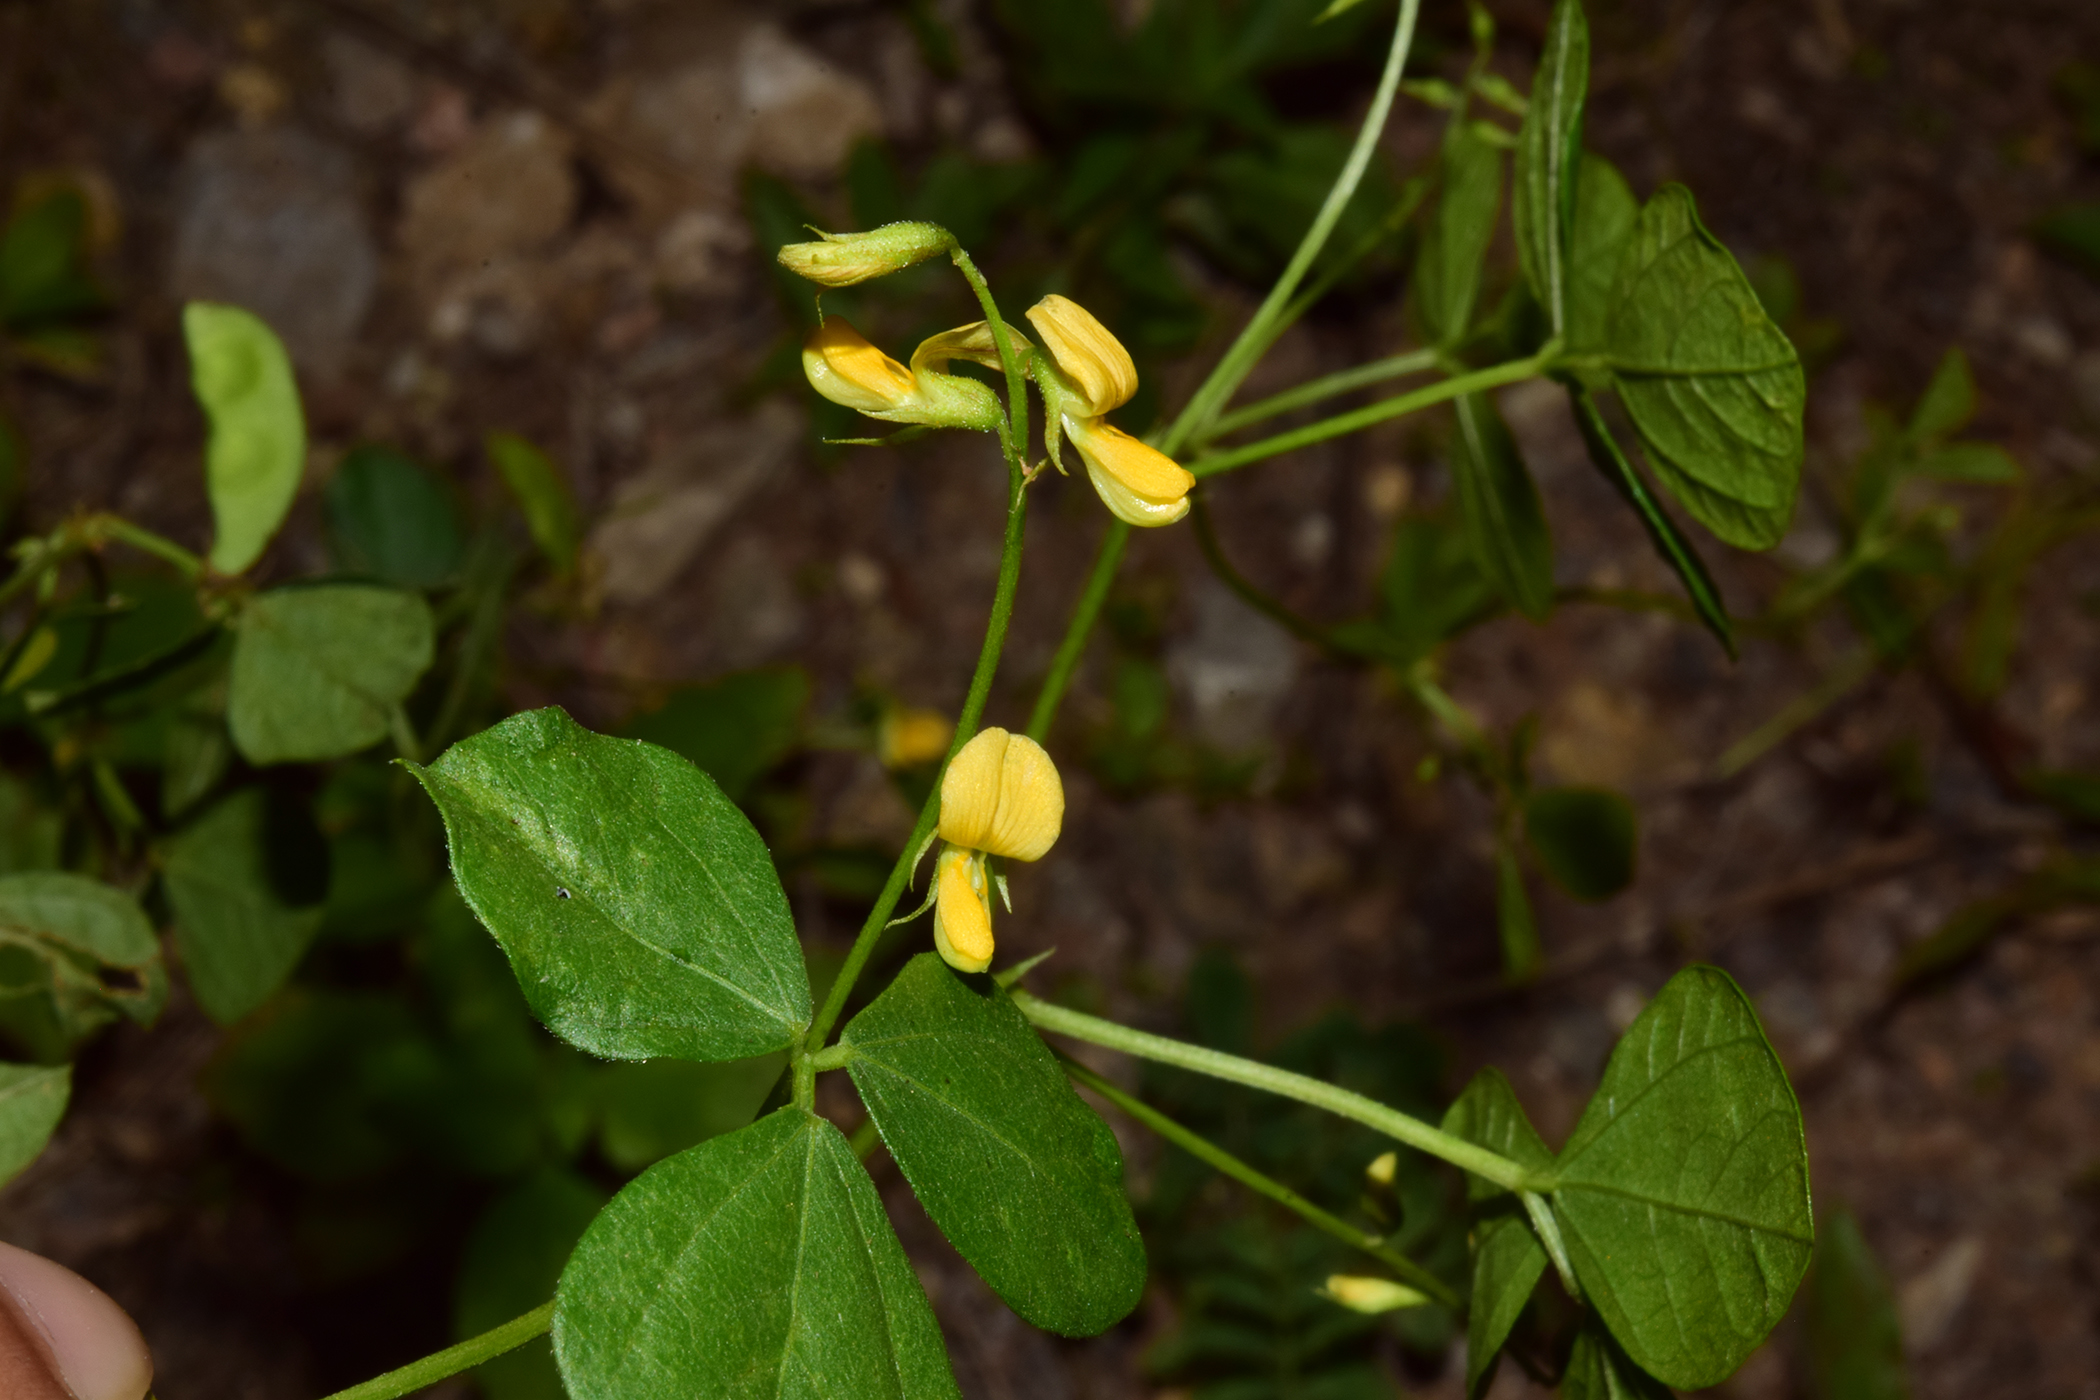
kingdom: Plantae
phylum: Tracheophyta
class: Magnoliopsida
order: Fabales
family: Fabaceae
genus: Rhynchosia
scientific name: Rhynchosia minima
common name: Least snoutbean
